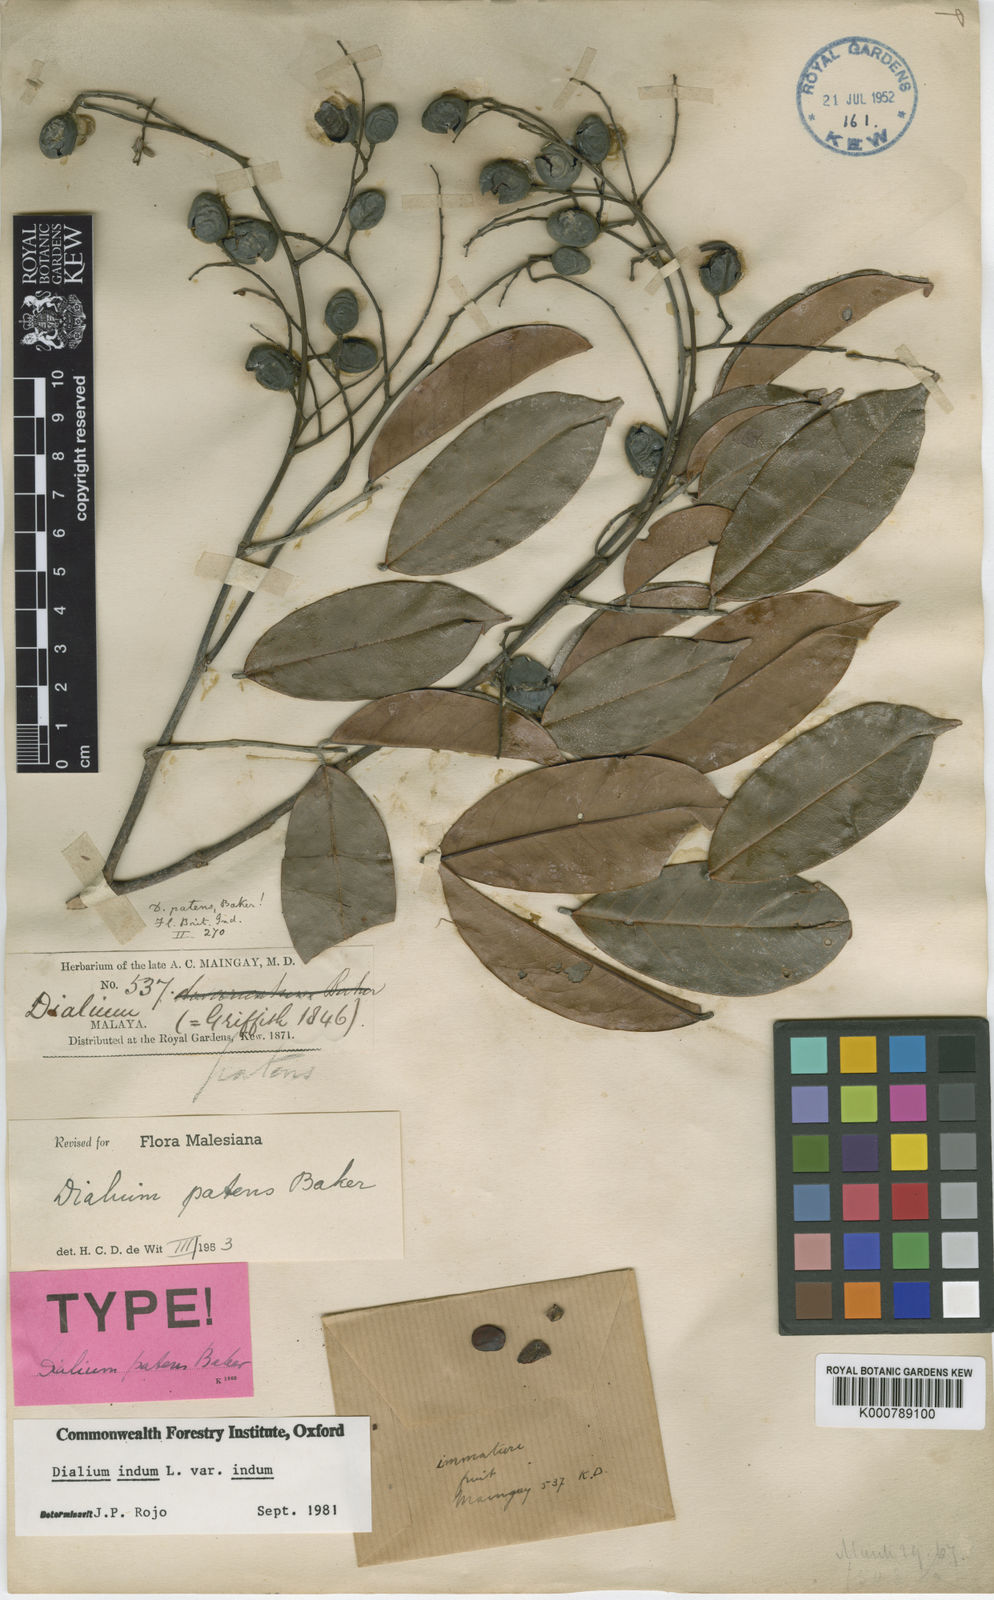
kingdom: Plantae
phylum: Tracheophyta
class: Magnoliopsida
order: Fabales
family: Fabaceae
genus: Dialium
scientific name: Dialium indum
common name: Tamarind-plum
